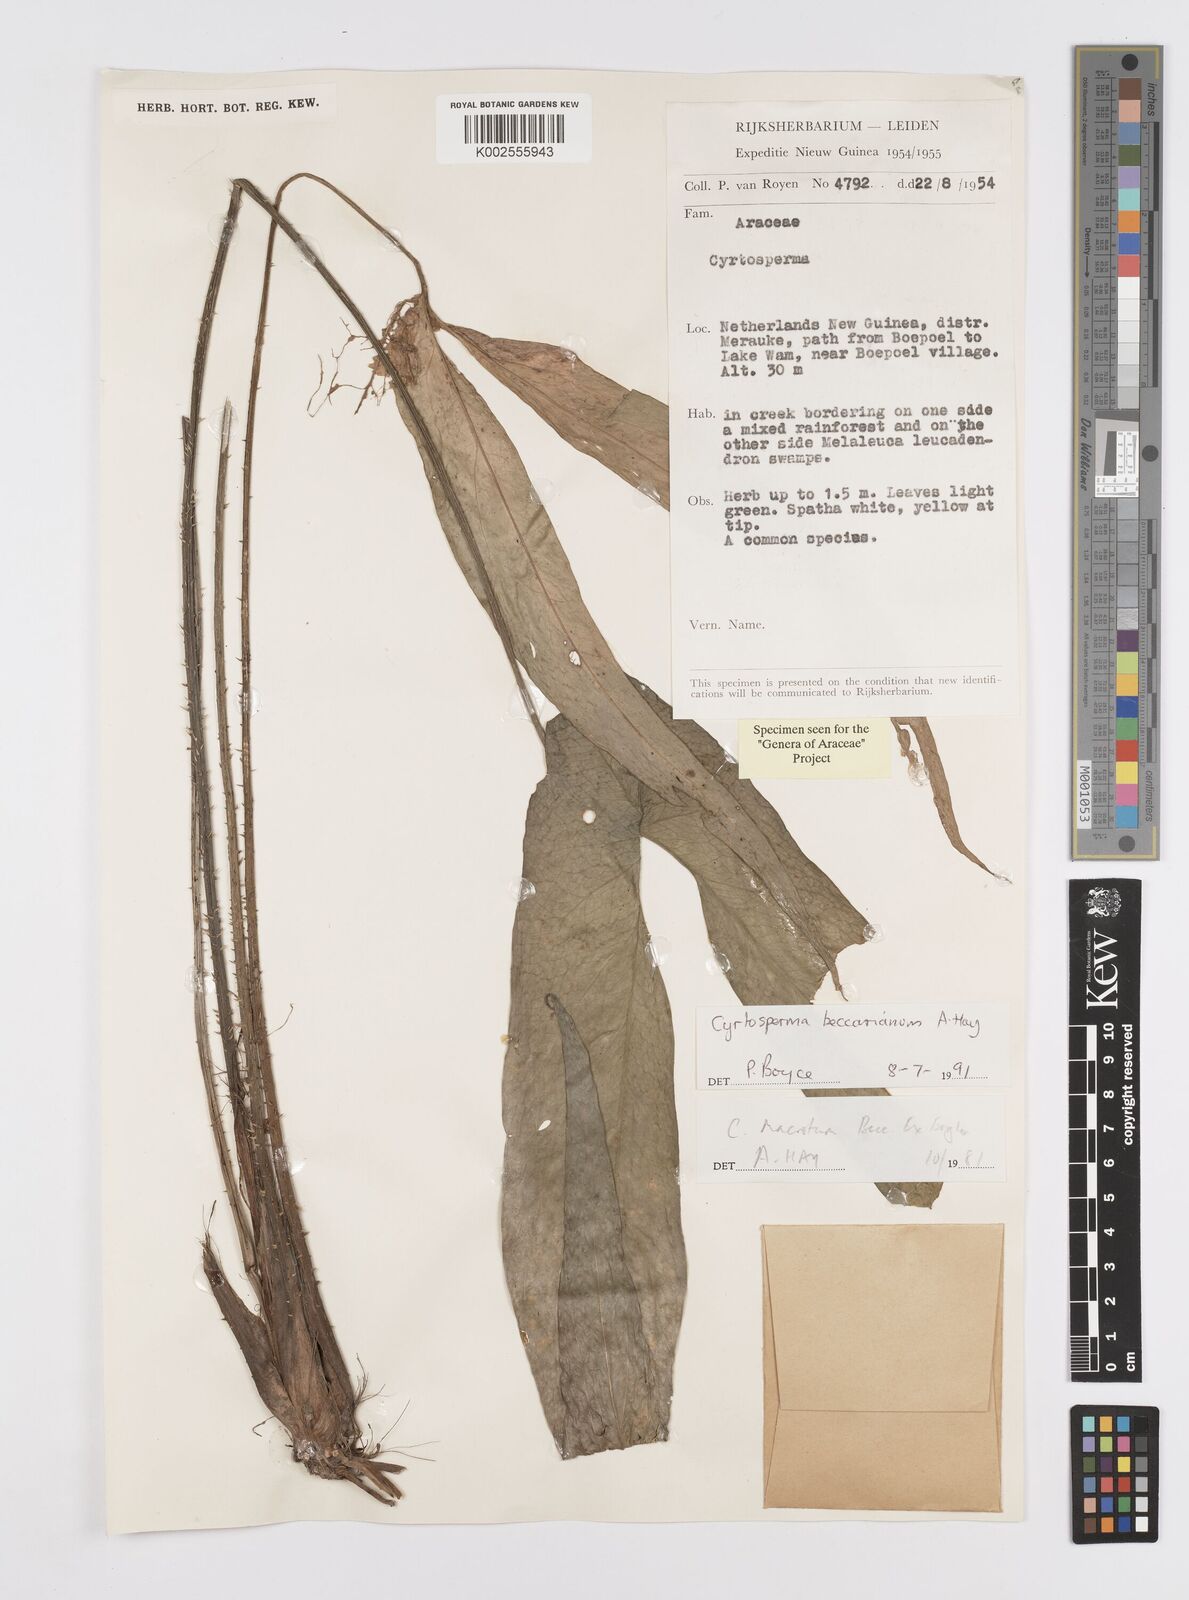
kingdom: Plantae
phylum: Tracheophyta
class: Liliopsida
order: Alismatales
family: Araceae
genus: Cyrtosperma
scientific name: Cyrtosperma beccarianum
